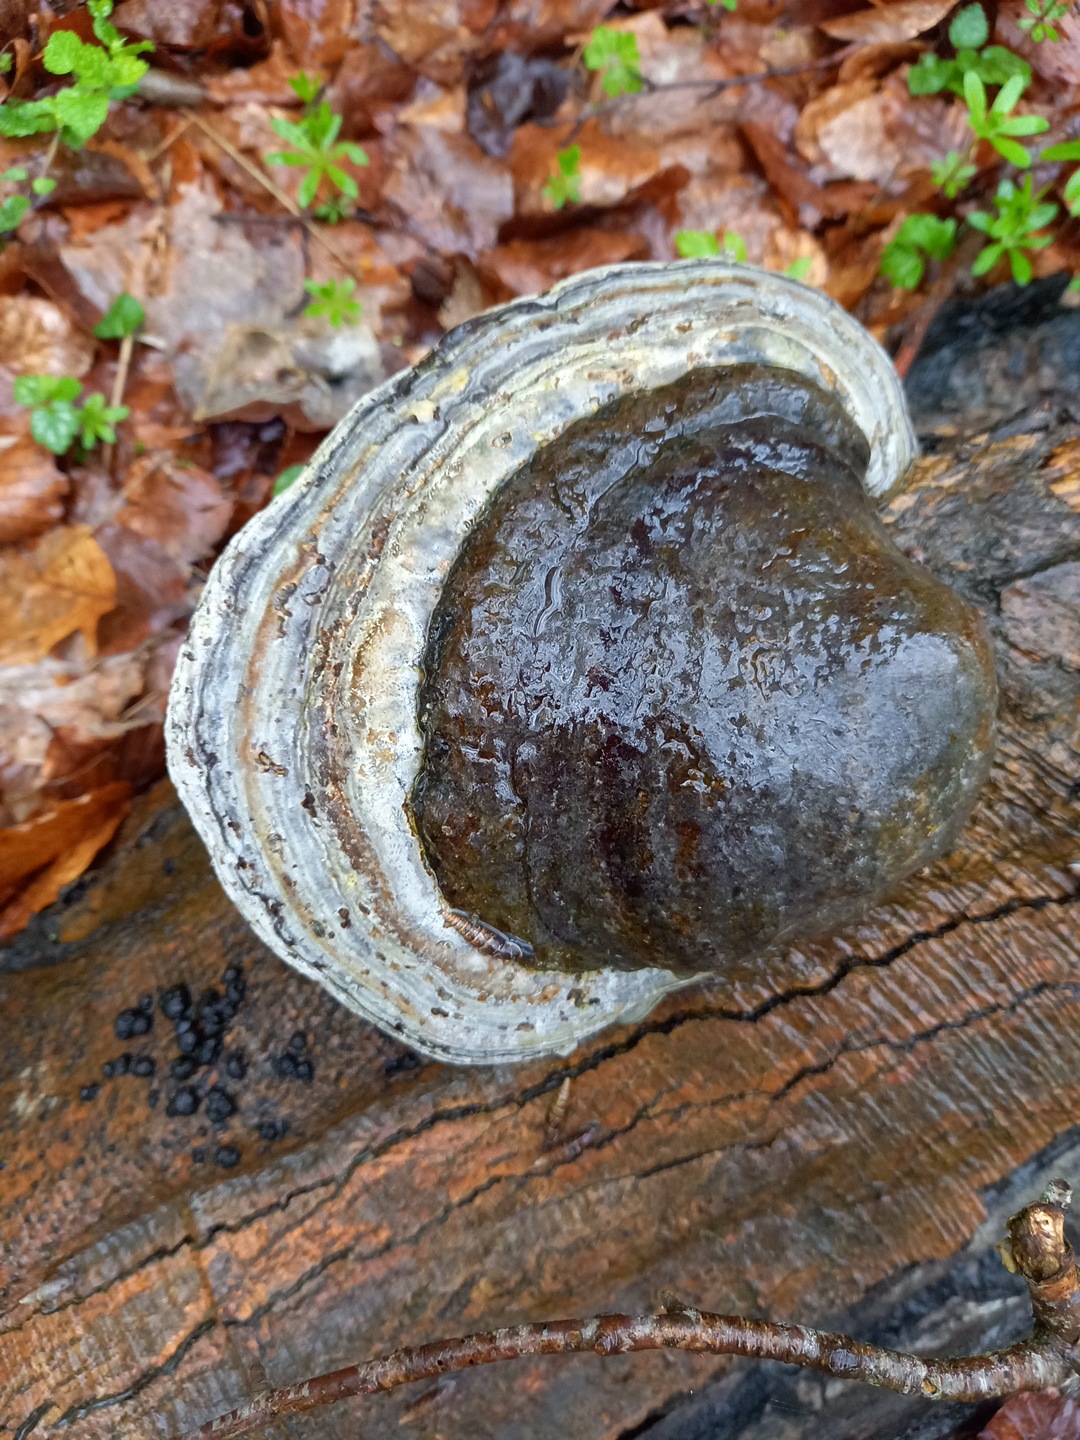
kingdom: Fungi
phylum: Basidiomycota
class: Agaricomycetes
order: Polyporales
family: Polyporaceae
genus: Fomes
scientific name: Fomes fomentarius
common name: tøndersvamp
